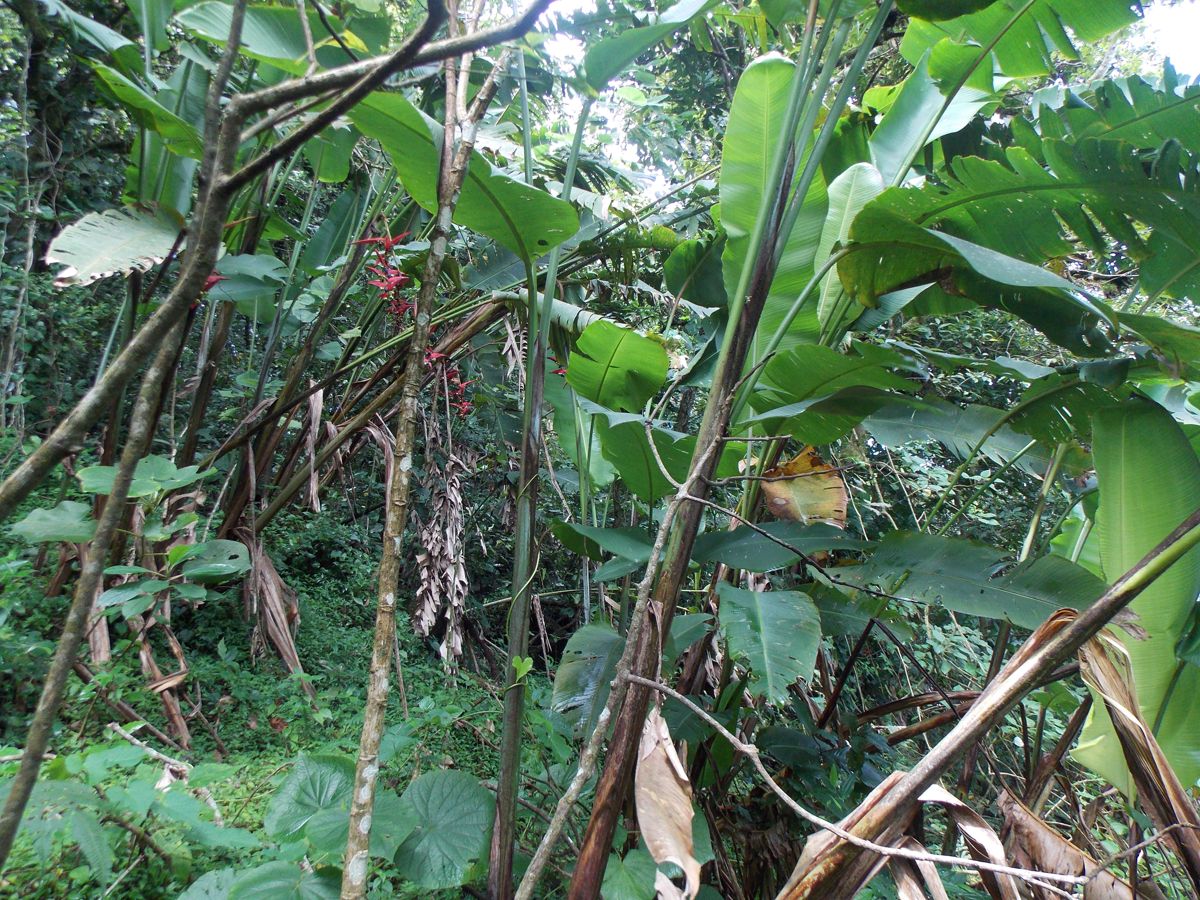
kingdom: Plantae
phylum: Tracheophyta
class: Liliopsida
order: Zingiberales
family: Heliconiaceae
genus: Heliconia
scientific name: Heliconia collinsiana
